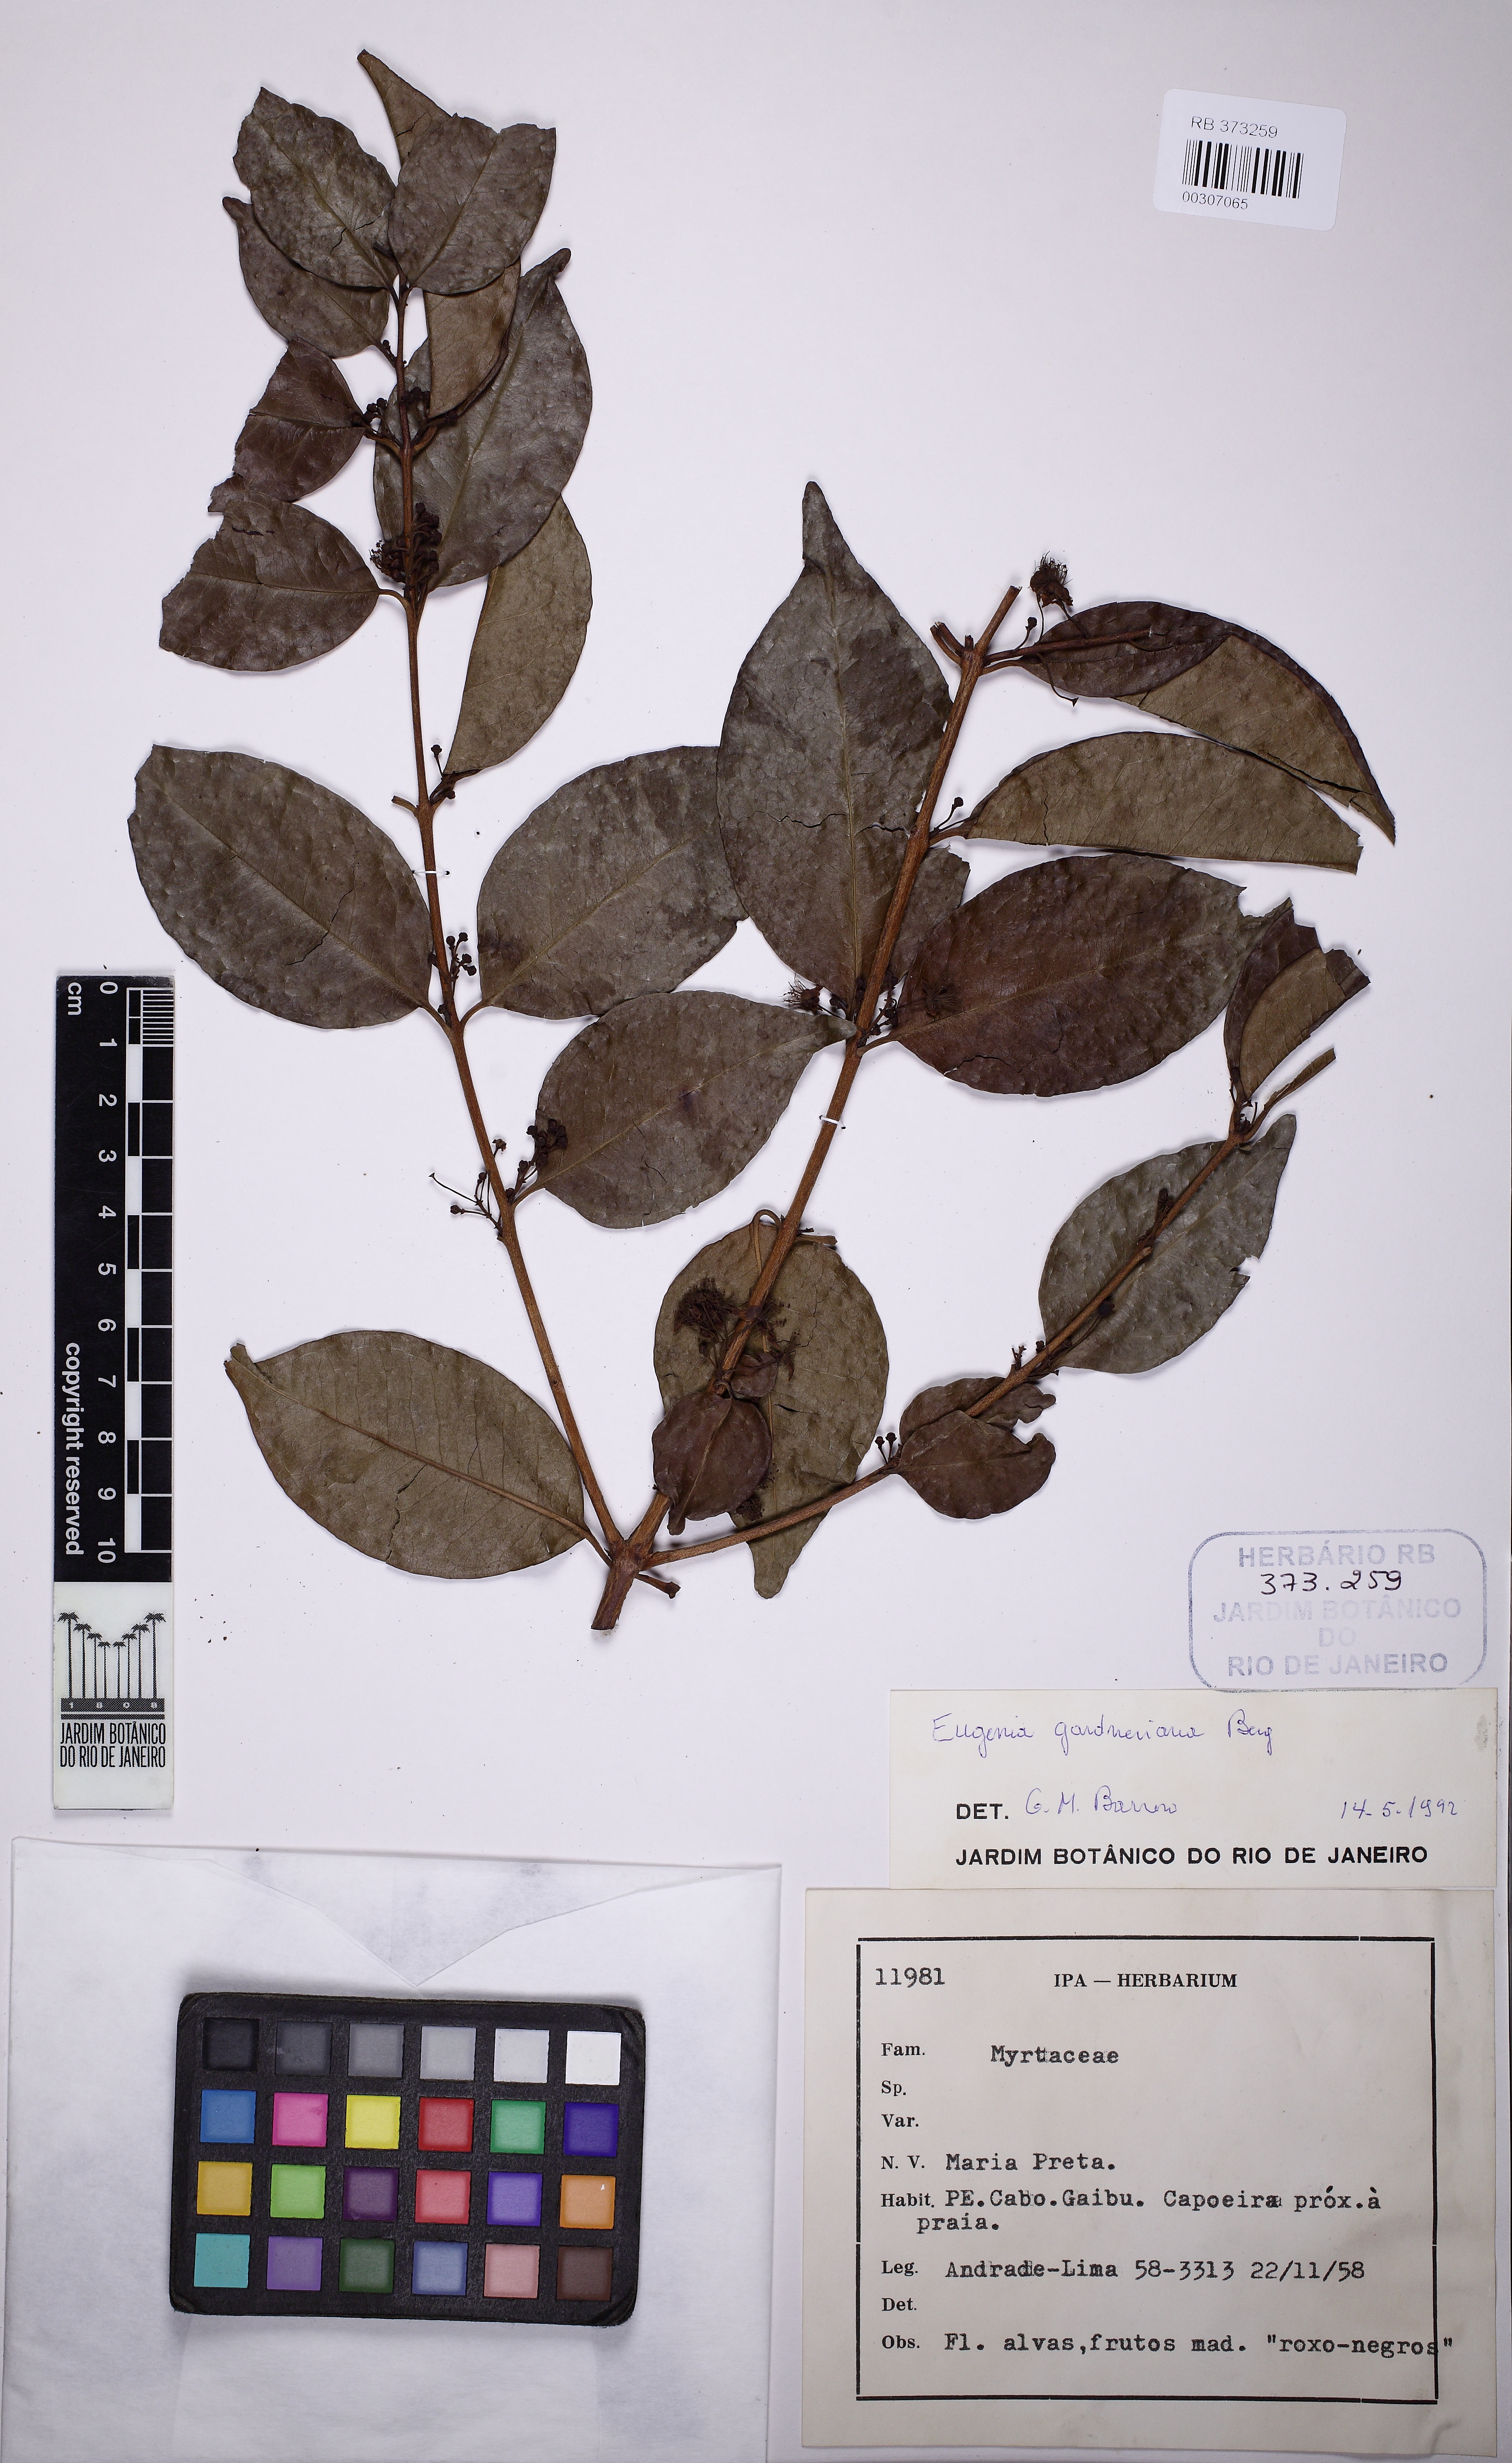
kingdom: Plantae
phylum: Tracheophyta
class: Magnoliopsida
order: Myrtales
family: Myrtaceae
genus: Eugenia
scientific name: Eugenia candolleana
